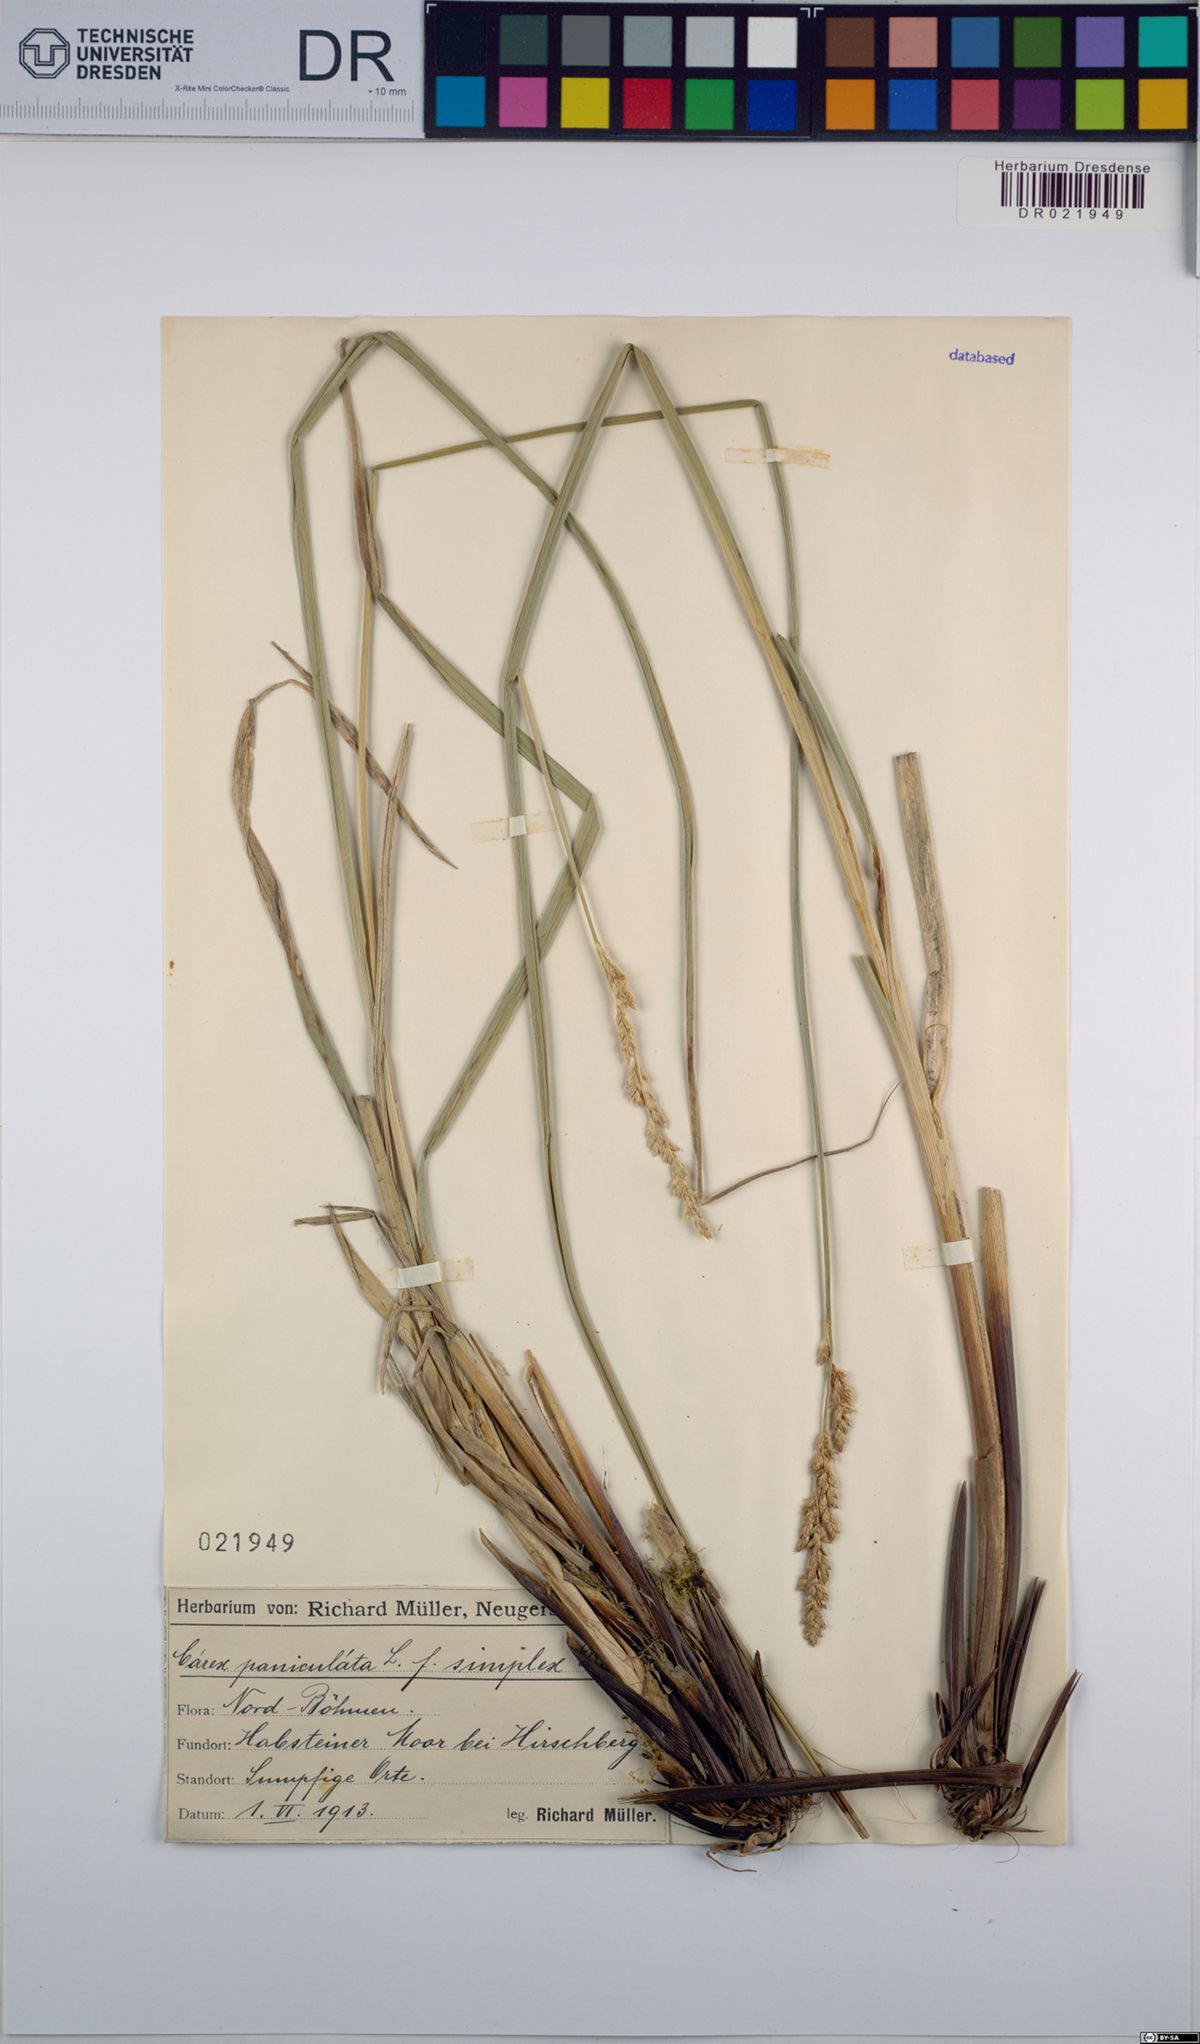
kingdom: Plantae
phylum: Tracheophyta
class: Liliopsida
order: Poales
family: Cyperaceae
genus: Carex
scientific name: Carex paniculata
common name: Greater tussock-sedge
